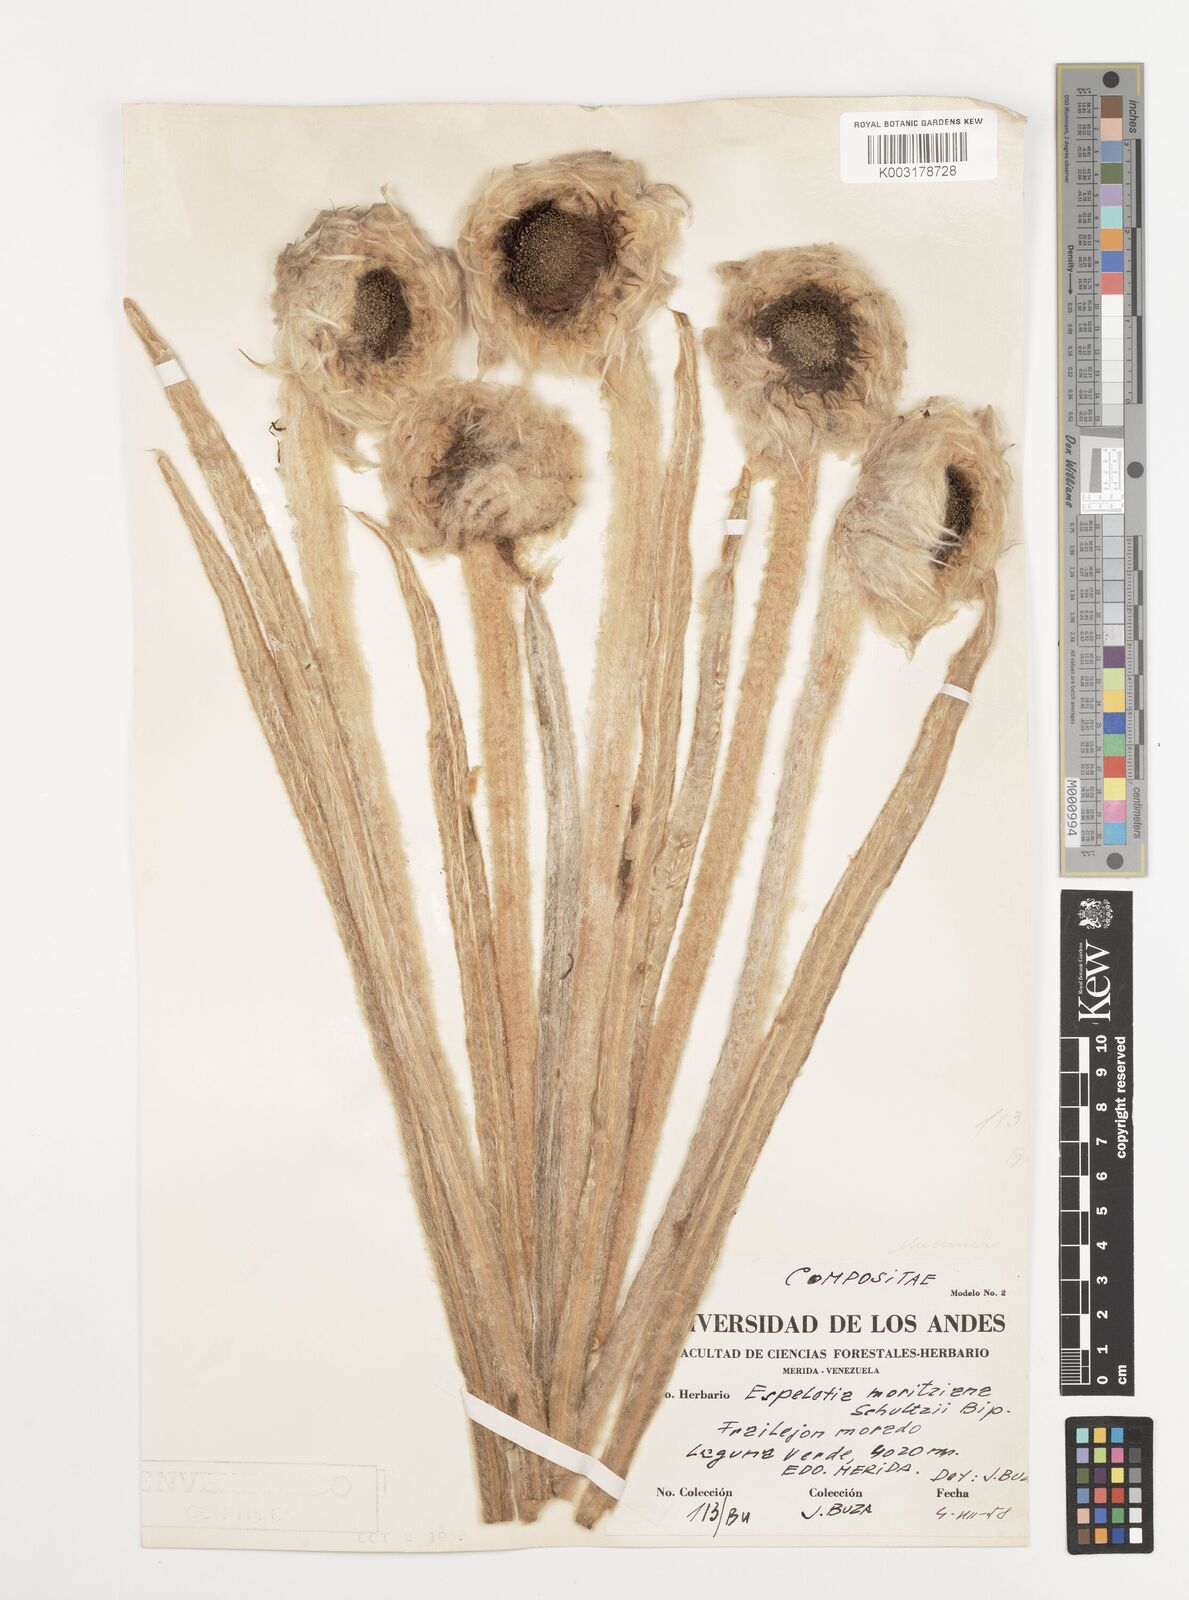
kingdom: Plantae
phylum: Tracheophyta
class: Magnoliopsida
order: Asterales
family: Asteraceae
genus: Espeletia
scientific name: Espeletia moritziana
